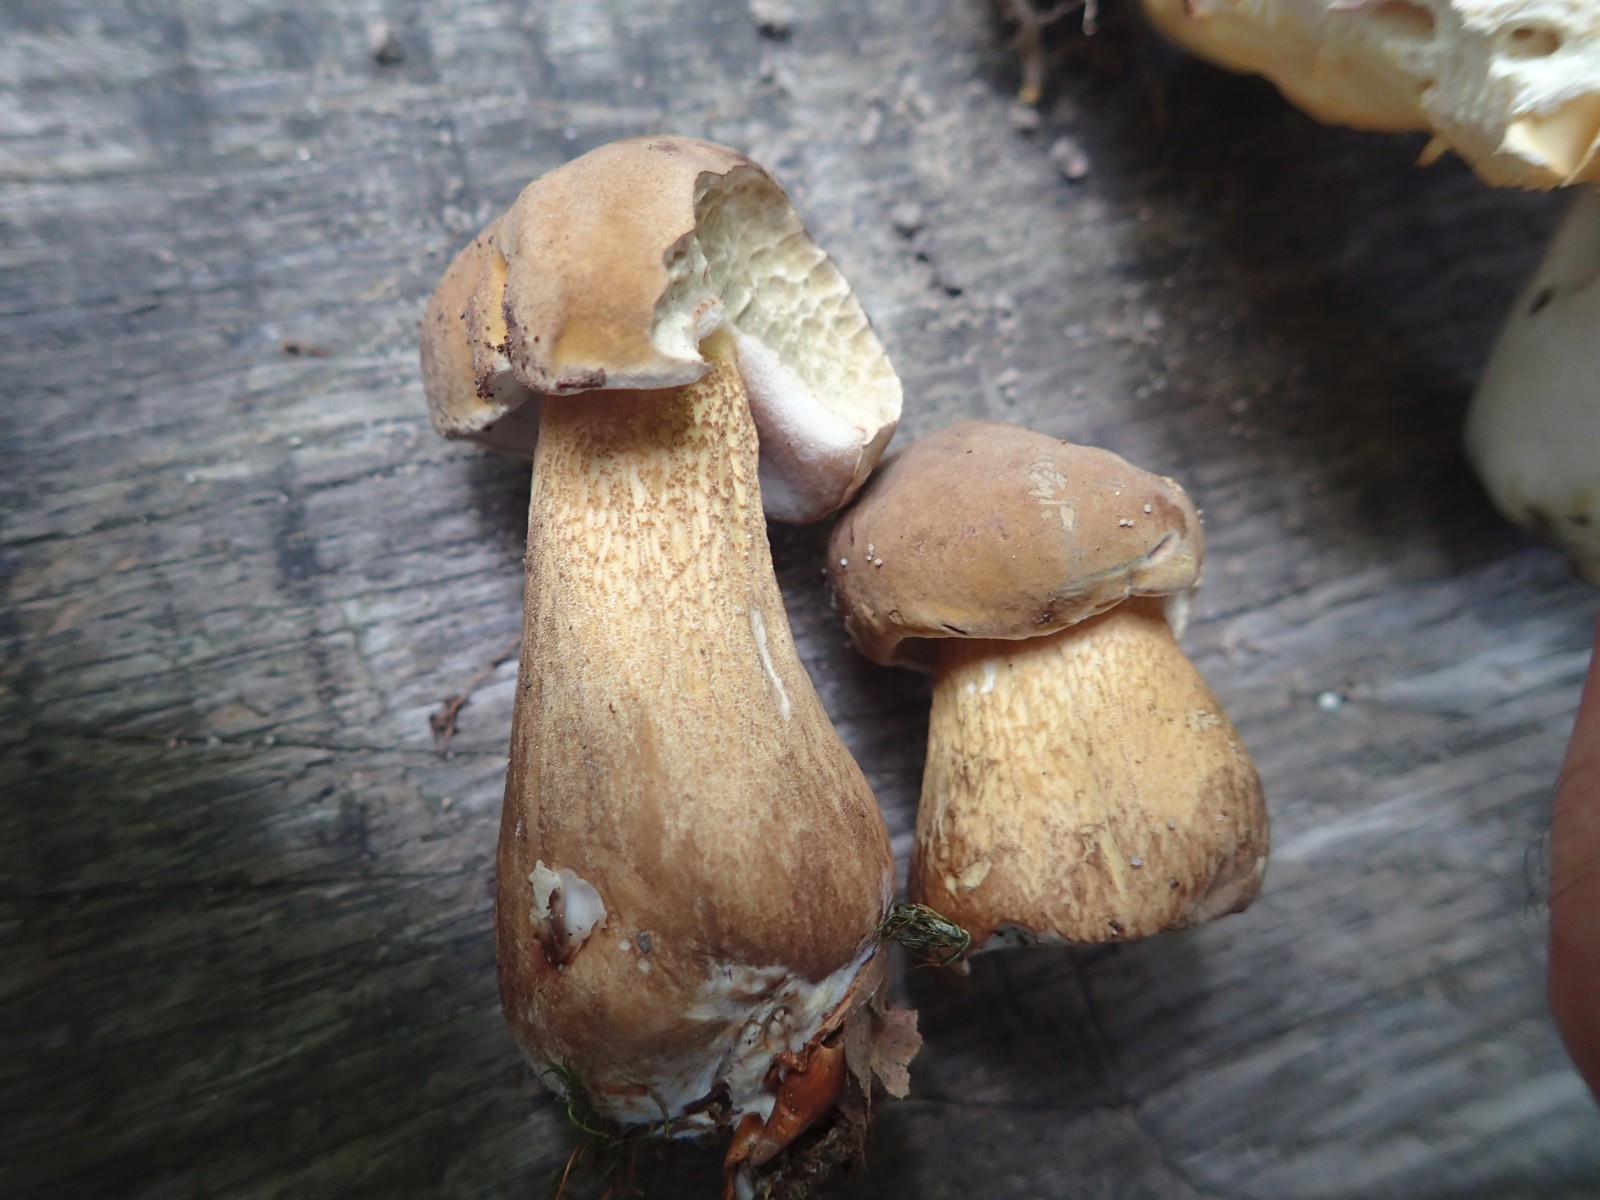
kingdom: Fungi
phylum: Basidiomycota
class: Agaricomycetes
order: Boletales
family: Boletaceae
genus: Tylopilus
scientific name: Tylopilus felleus
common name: galderørhat
